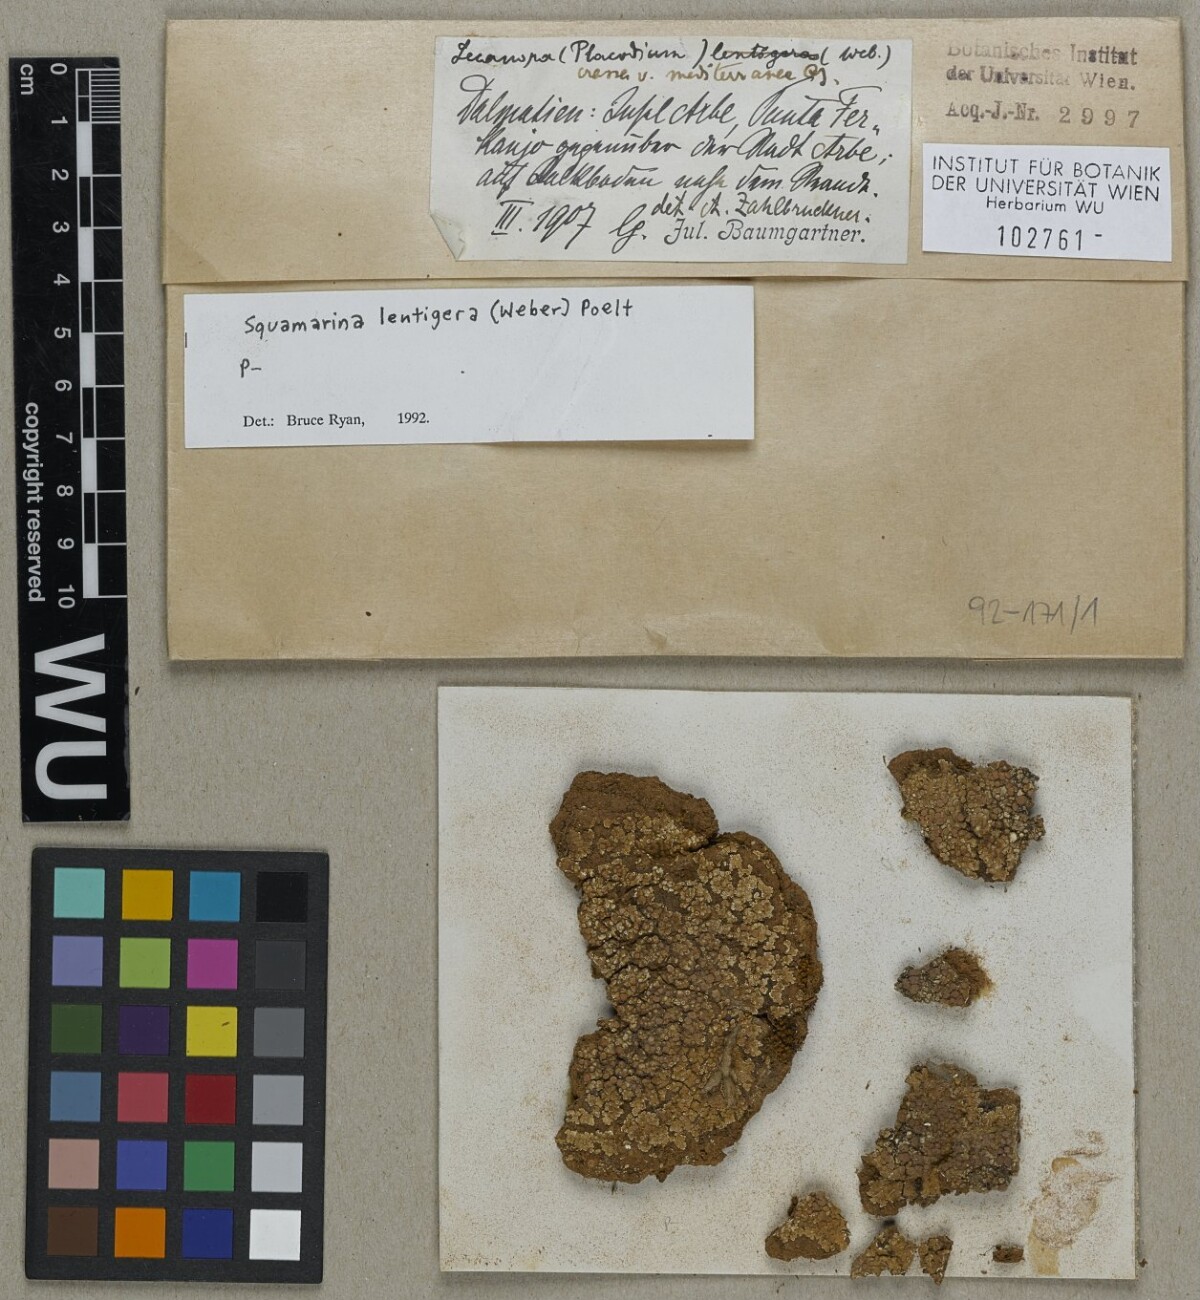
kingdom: Fungi
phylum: Ascomycota
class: Lecanoromycetes
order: Lecanorales
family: Stereocaulaceae
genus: Squamarina
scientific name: Squamarina lentigera
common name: Scaly breck-lichen
